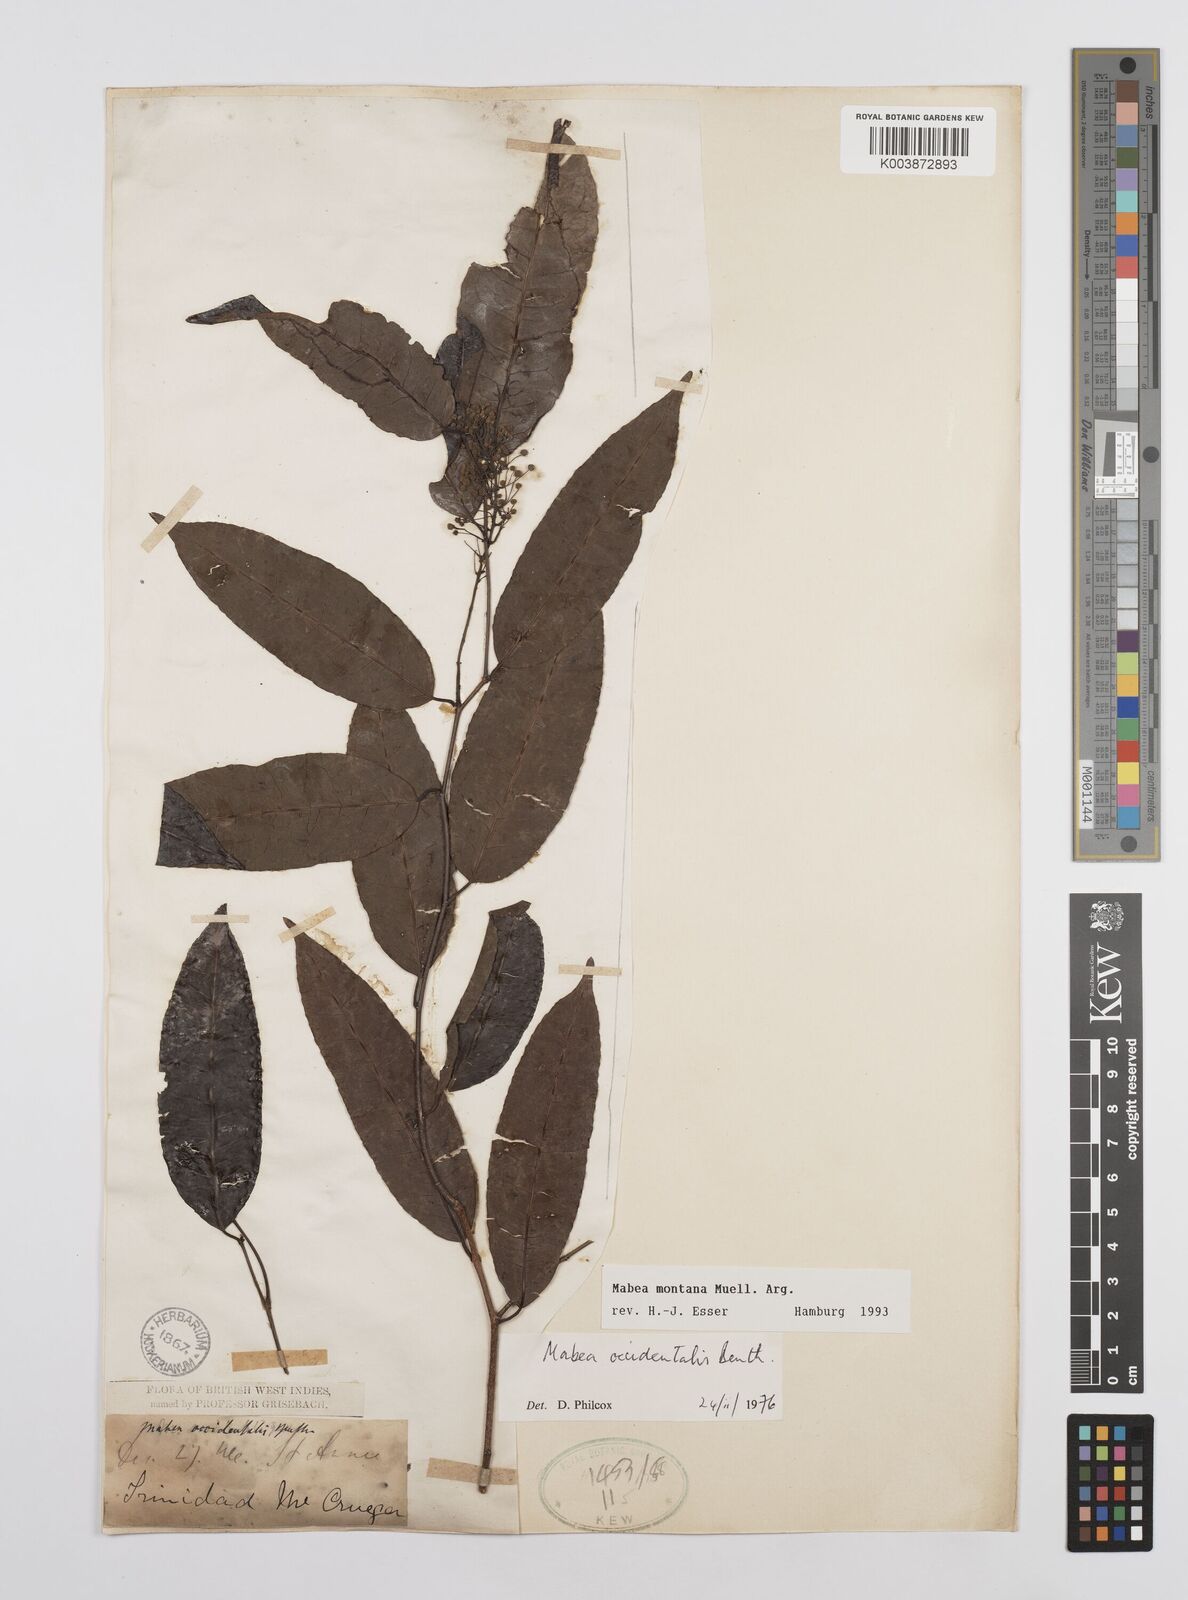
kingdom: Plantae
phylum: Tracheophyta
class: Magnoliopsida
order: Malpighiales
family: Euphorbiaceae
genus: Mabea
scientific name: Mabea montana
